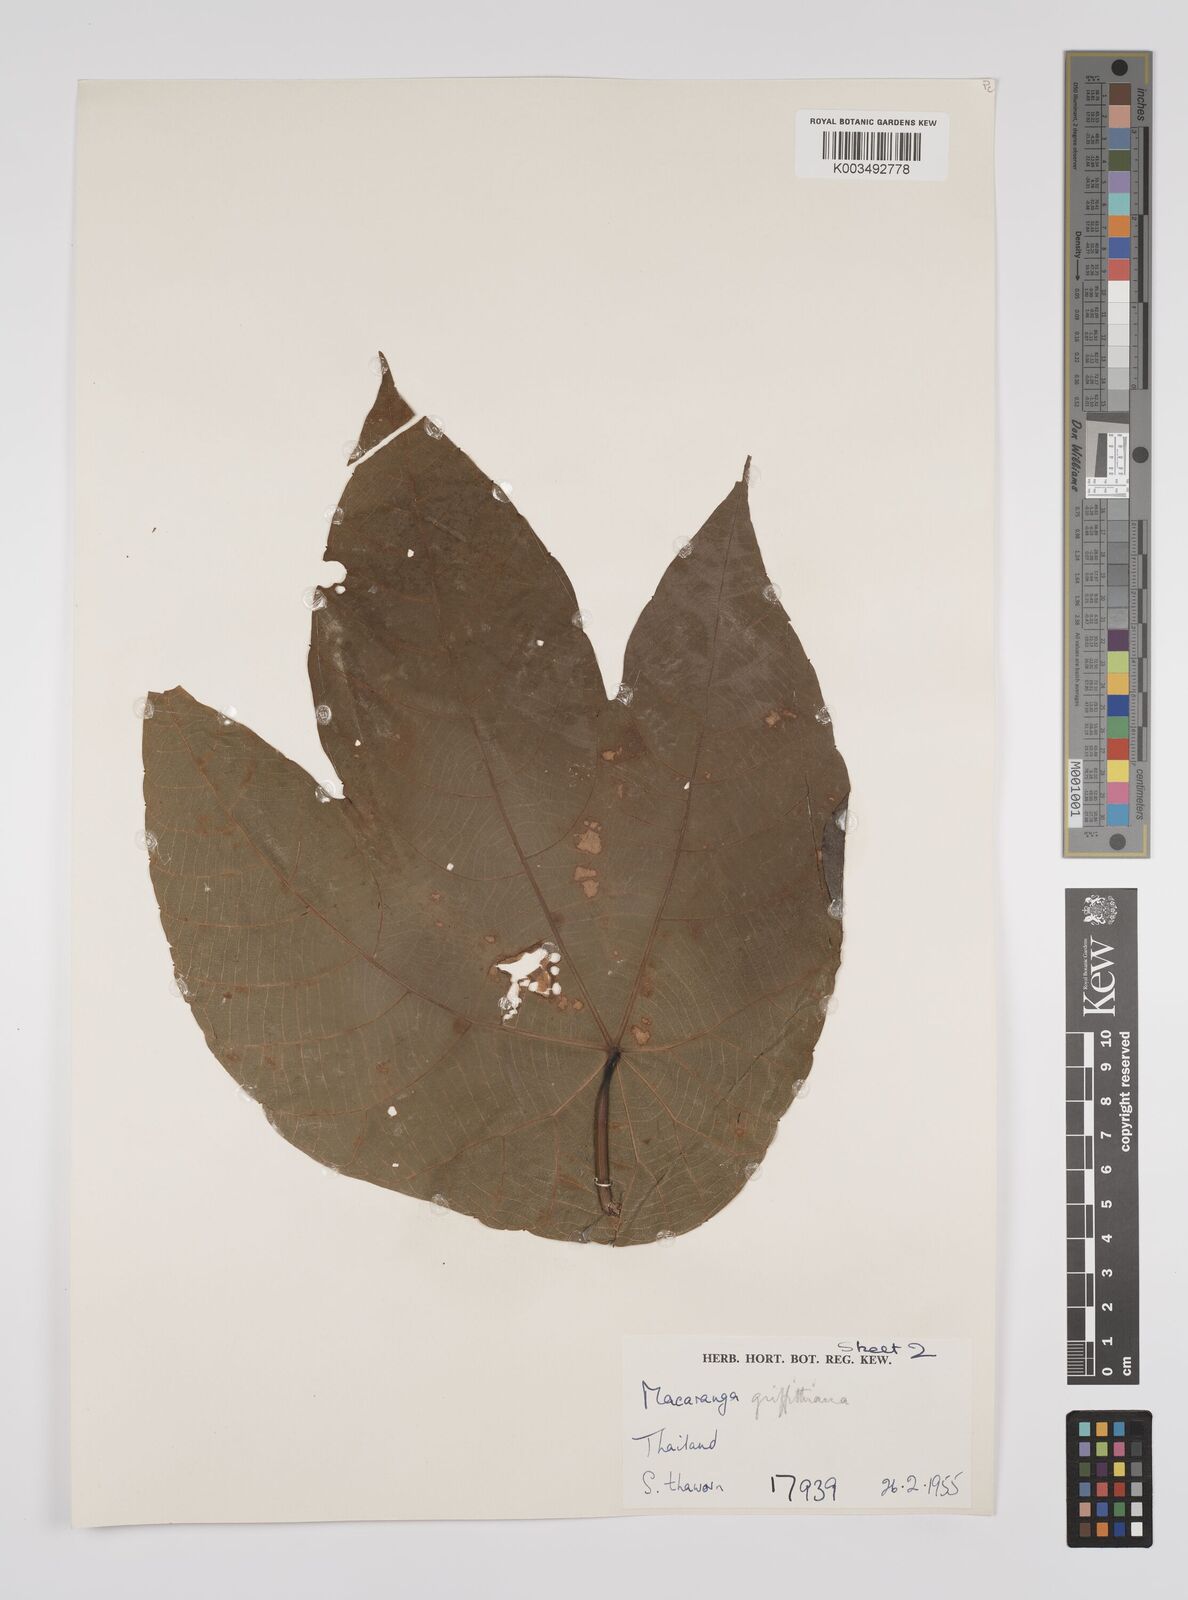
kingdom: Plantae
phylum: Tracheophyta
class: Magnoliopsida
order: Malpighiales
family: Euphorbiaceae
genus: Macaranga
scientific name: Macaranga griffithiana
